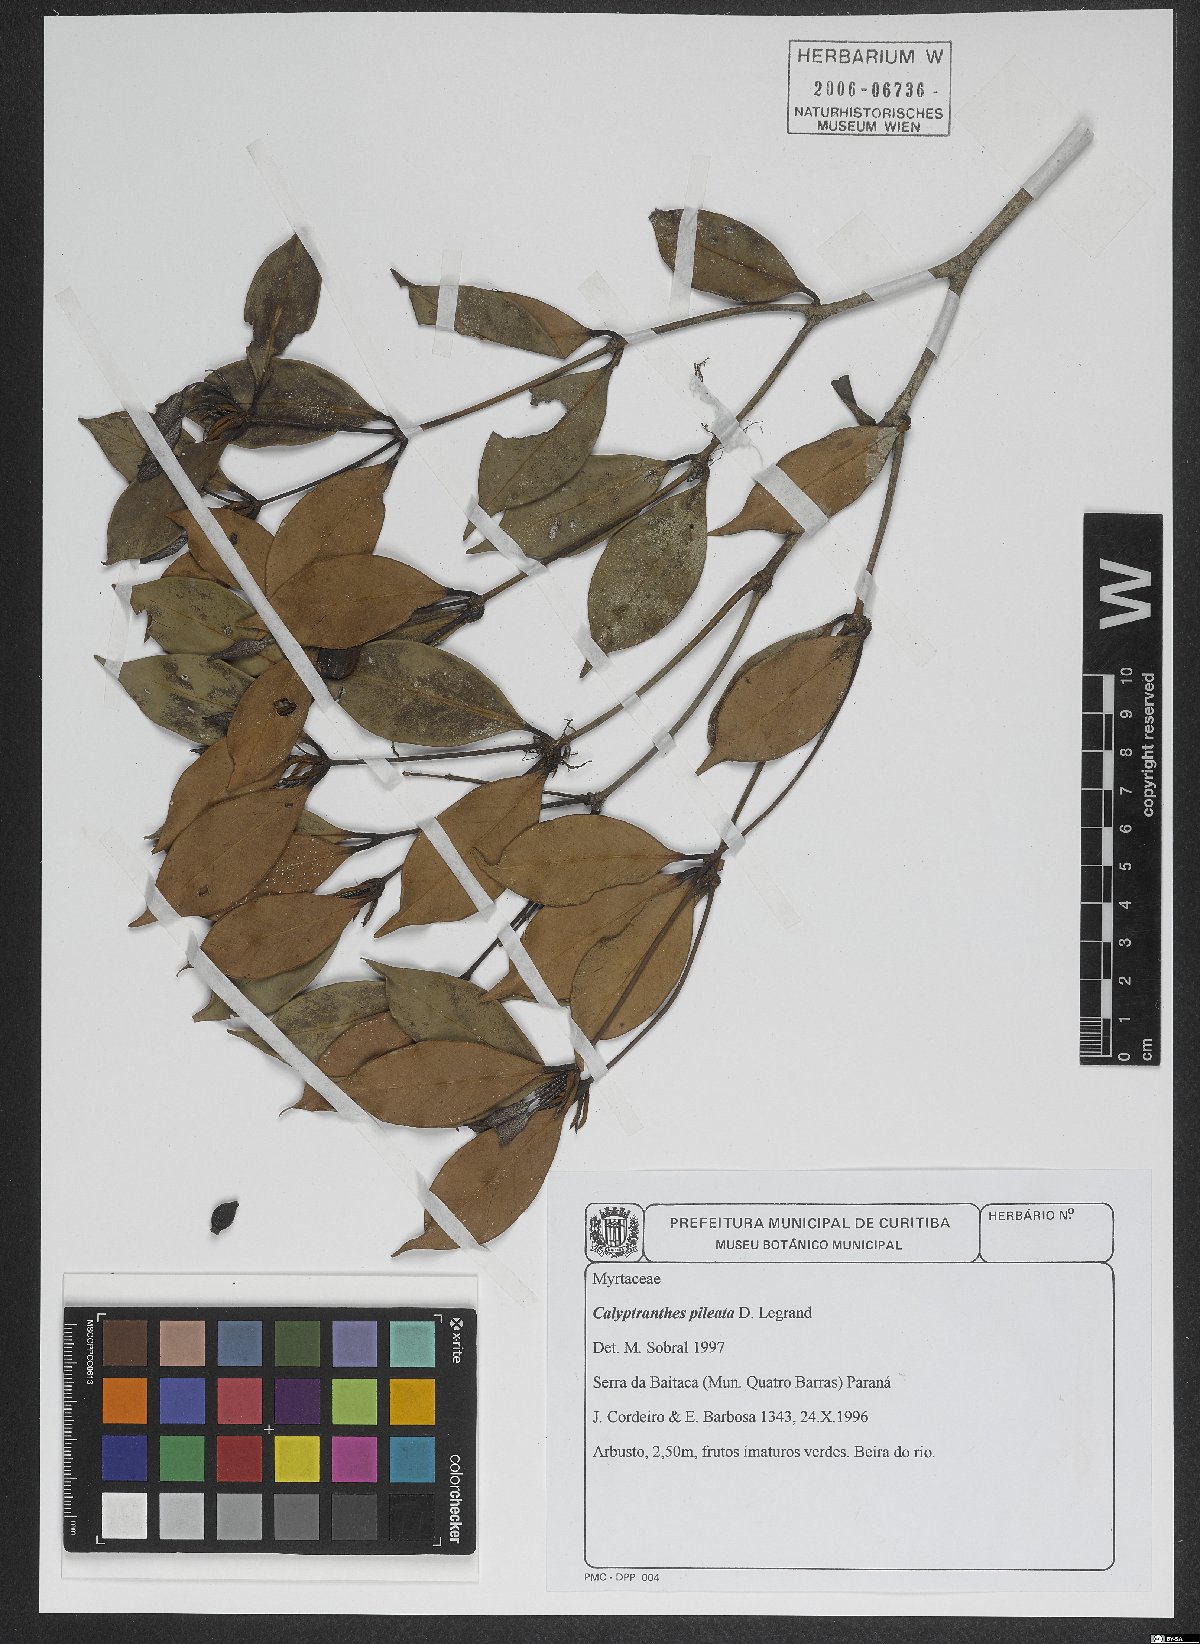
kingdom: Plantae
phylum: Tracheophyta
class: Magnoliopsida
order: Myrtales
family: Myrtaceae
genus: Myrcia
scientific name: Myrcia pileata
